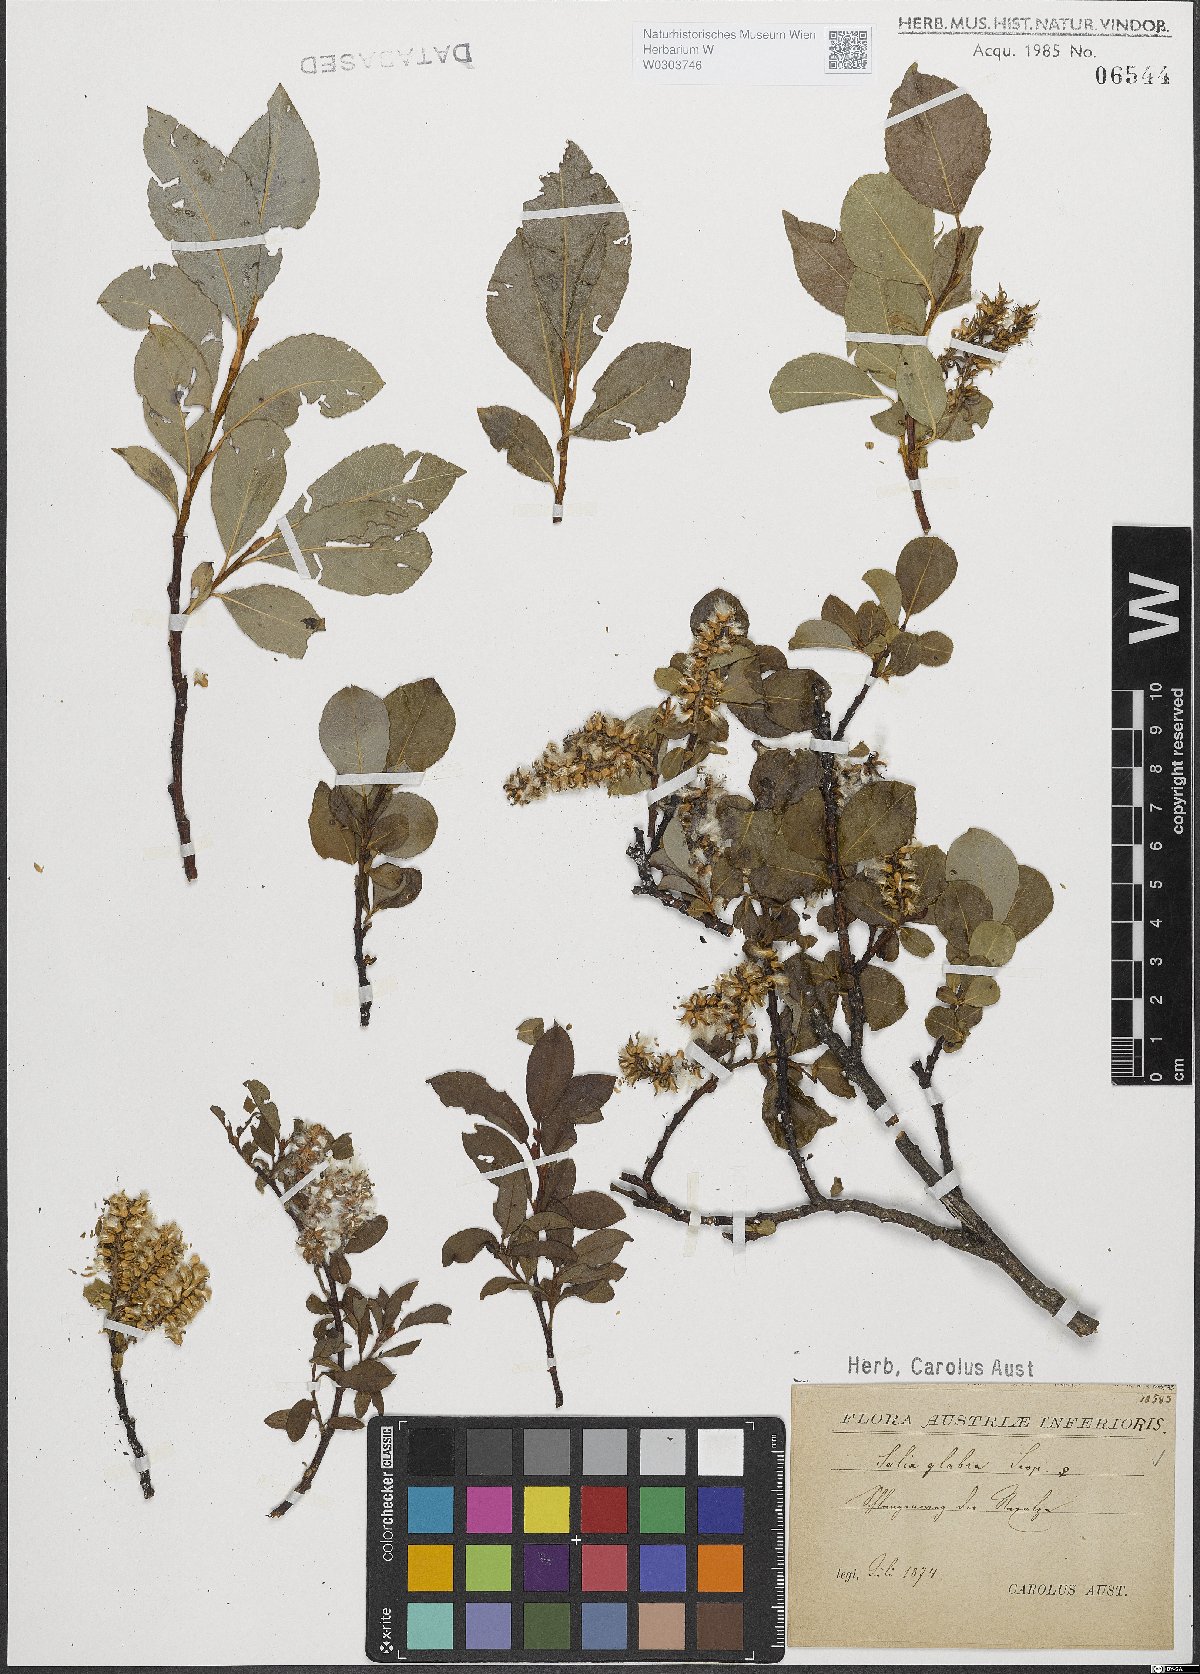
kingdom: Plantae
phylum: Tracheophyta
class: Magnoliopsida
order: Malpighiales
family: Salicaceae
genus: Salix
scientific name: Salix glabra
